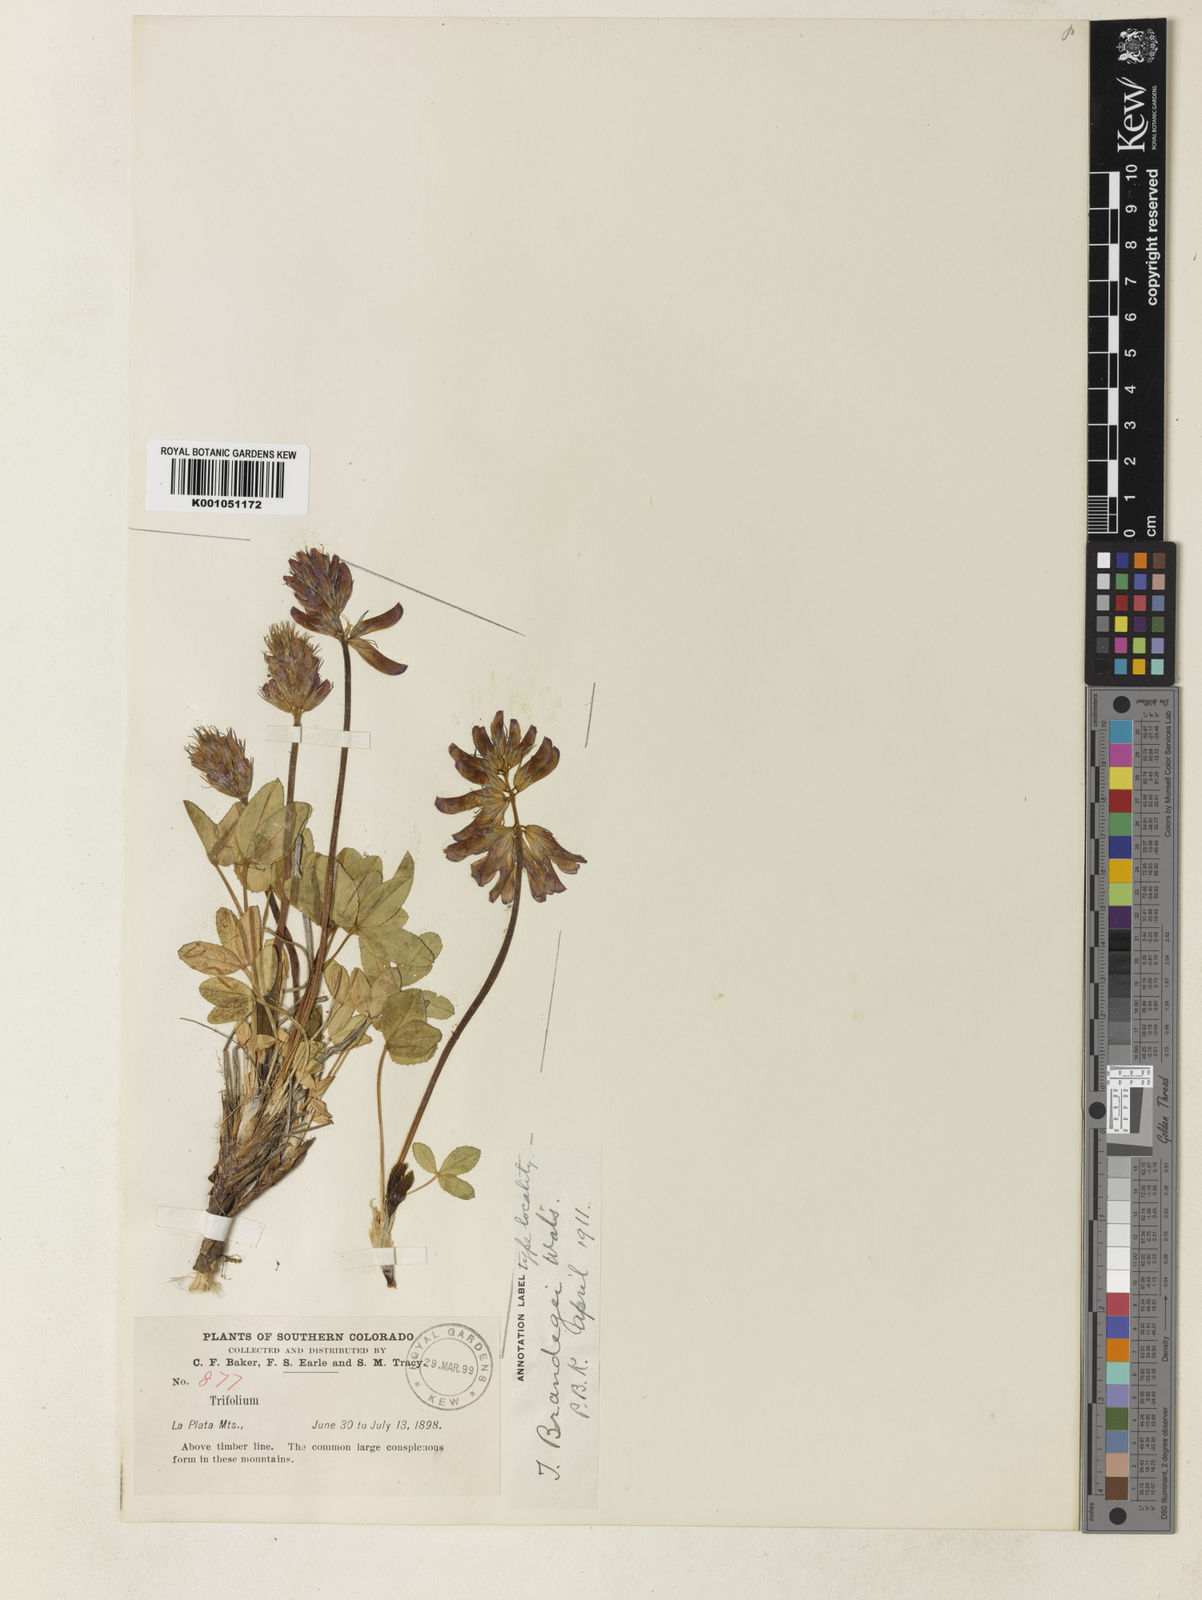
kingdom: Plantae
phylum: Tracheophyta
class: Magnoliopsida
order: Fabales
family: Fabaceae
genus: Trifolium
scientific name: Trifolium brandegeei
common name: Brandegee's clover
